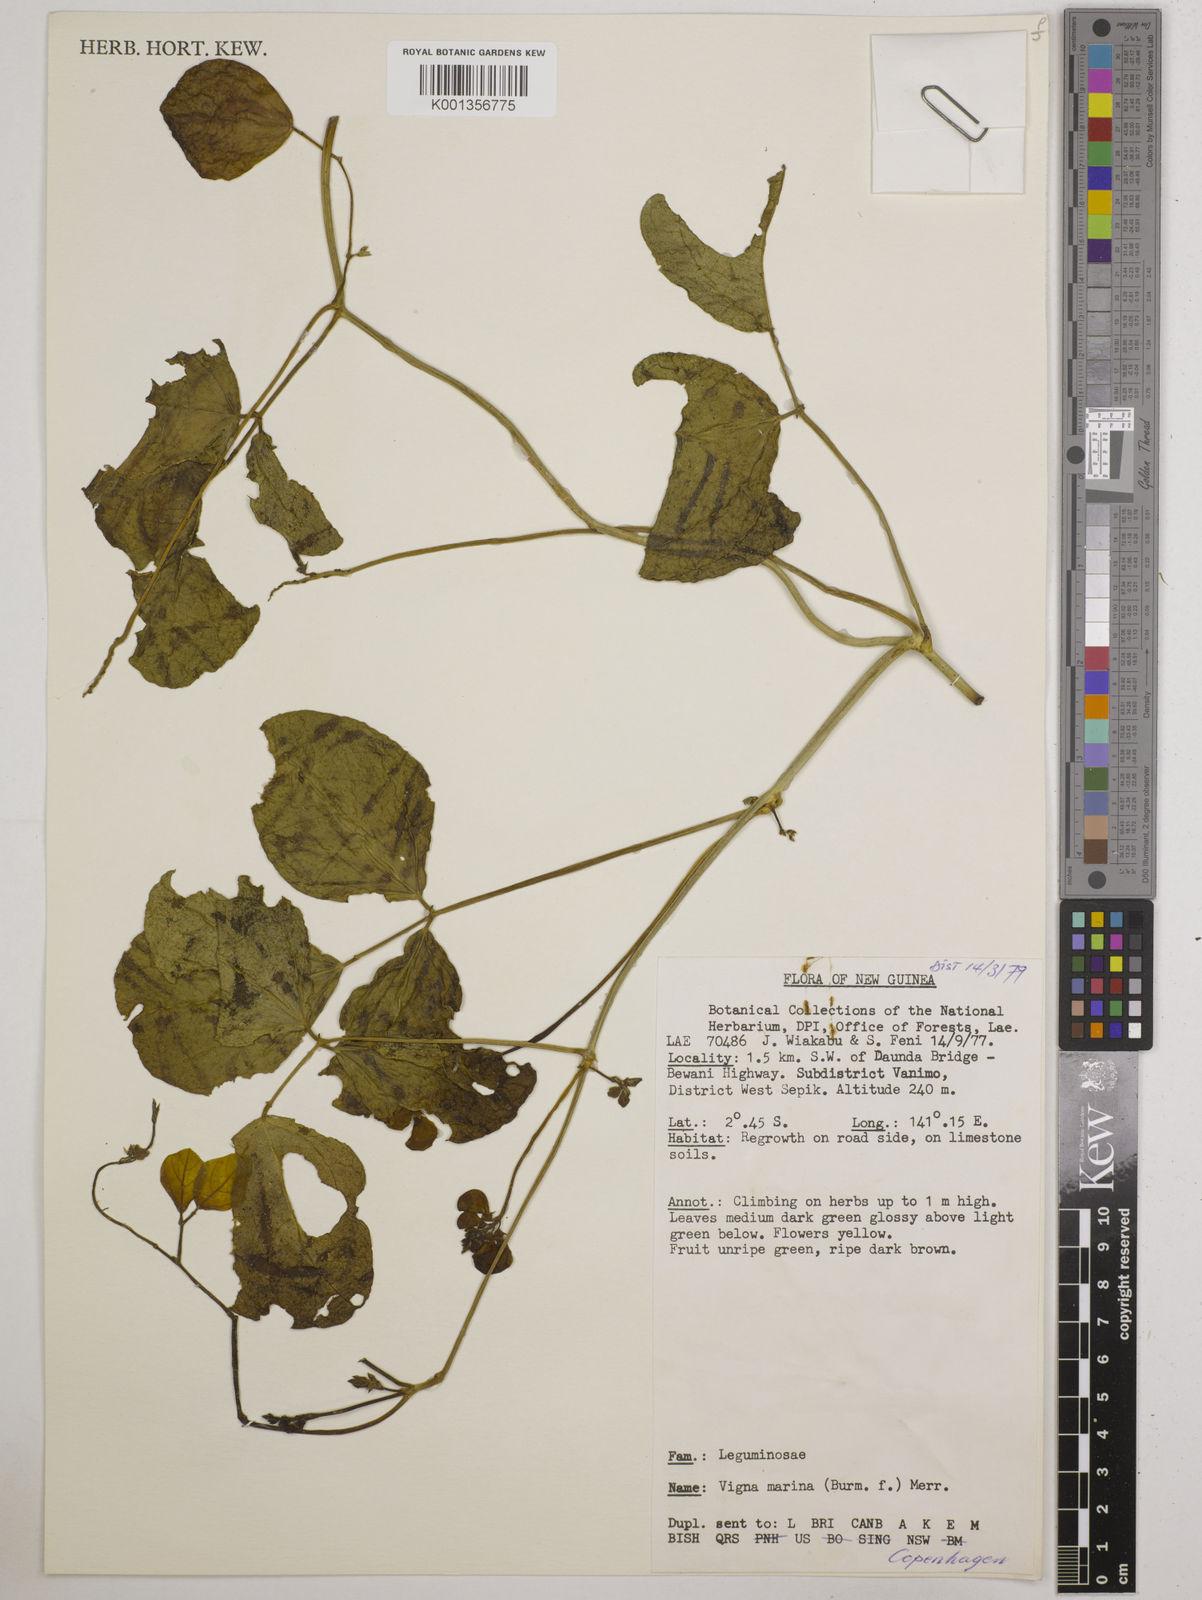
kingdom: Plantae
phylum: Tracheophyta
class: Magnoliopsida
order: Fabales
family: Fabaceae
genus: Vigna
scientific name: Vigna marina
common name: Dune-bean
